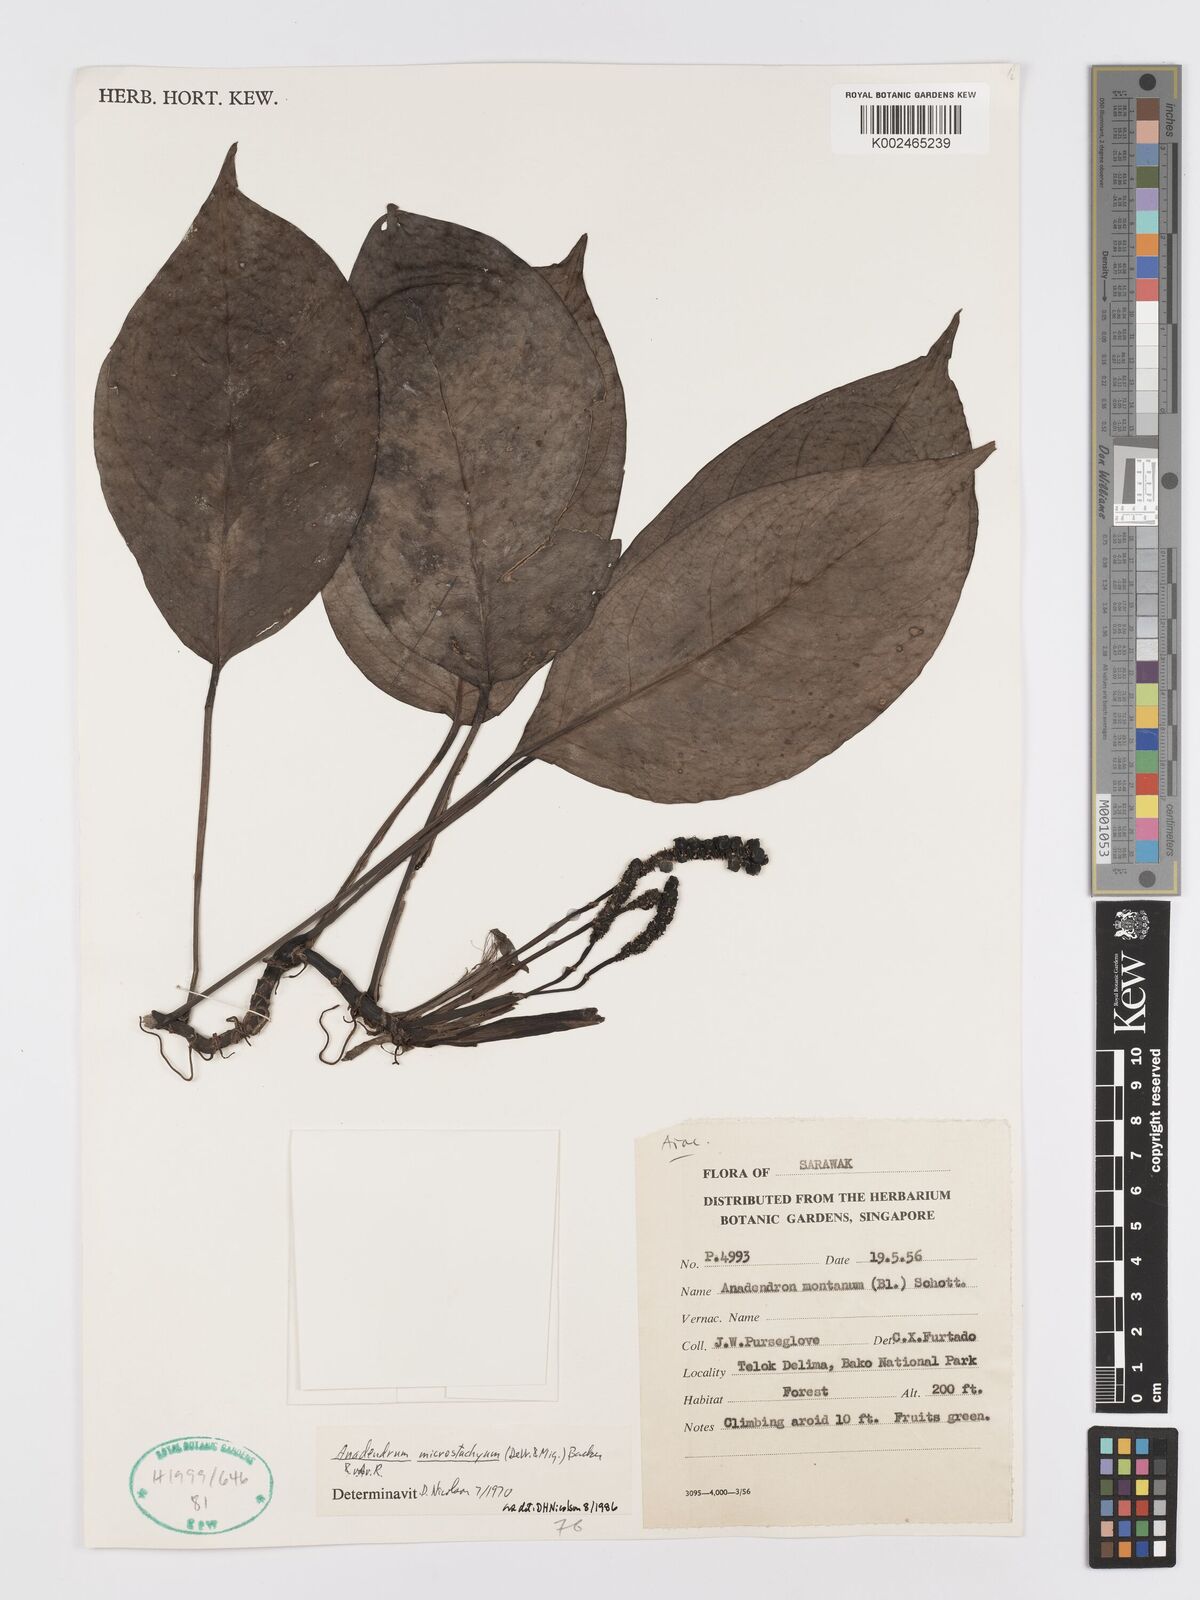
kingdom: Plantae
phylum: Tracheophyta
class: Liliopsida
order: Alismatales
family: Araceae
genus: Anadendrum
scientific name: Anadendrum microstachyum
